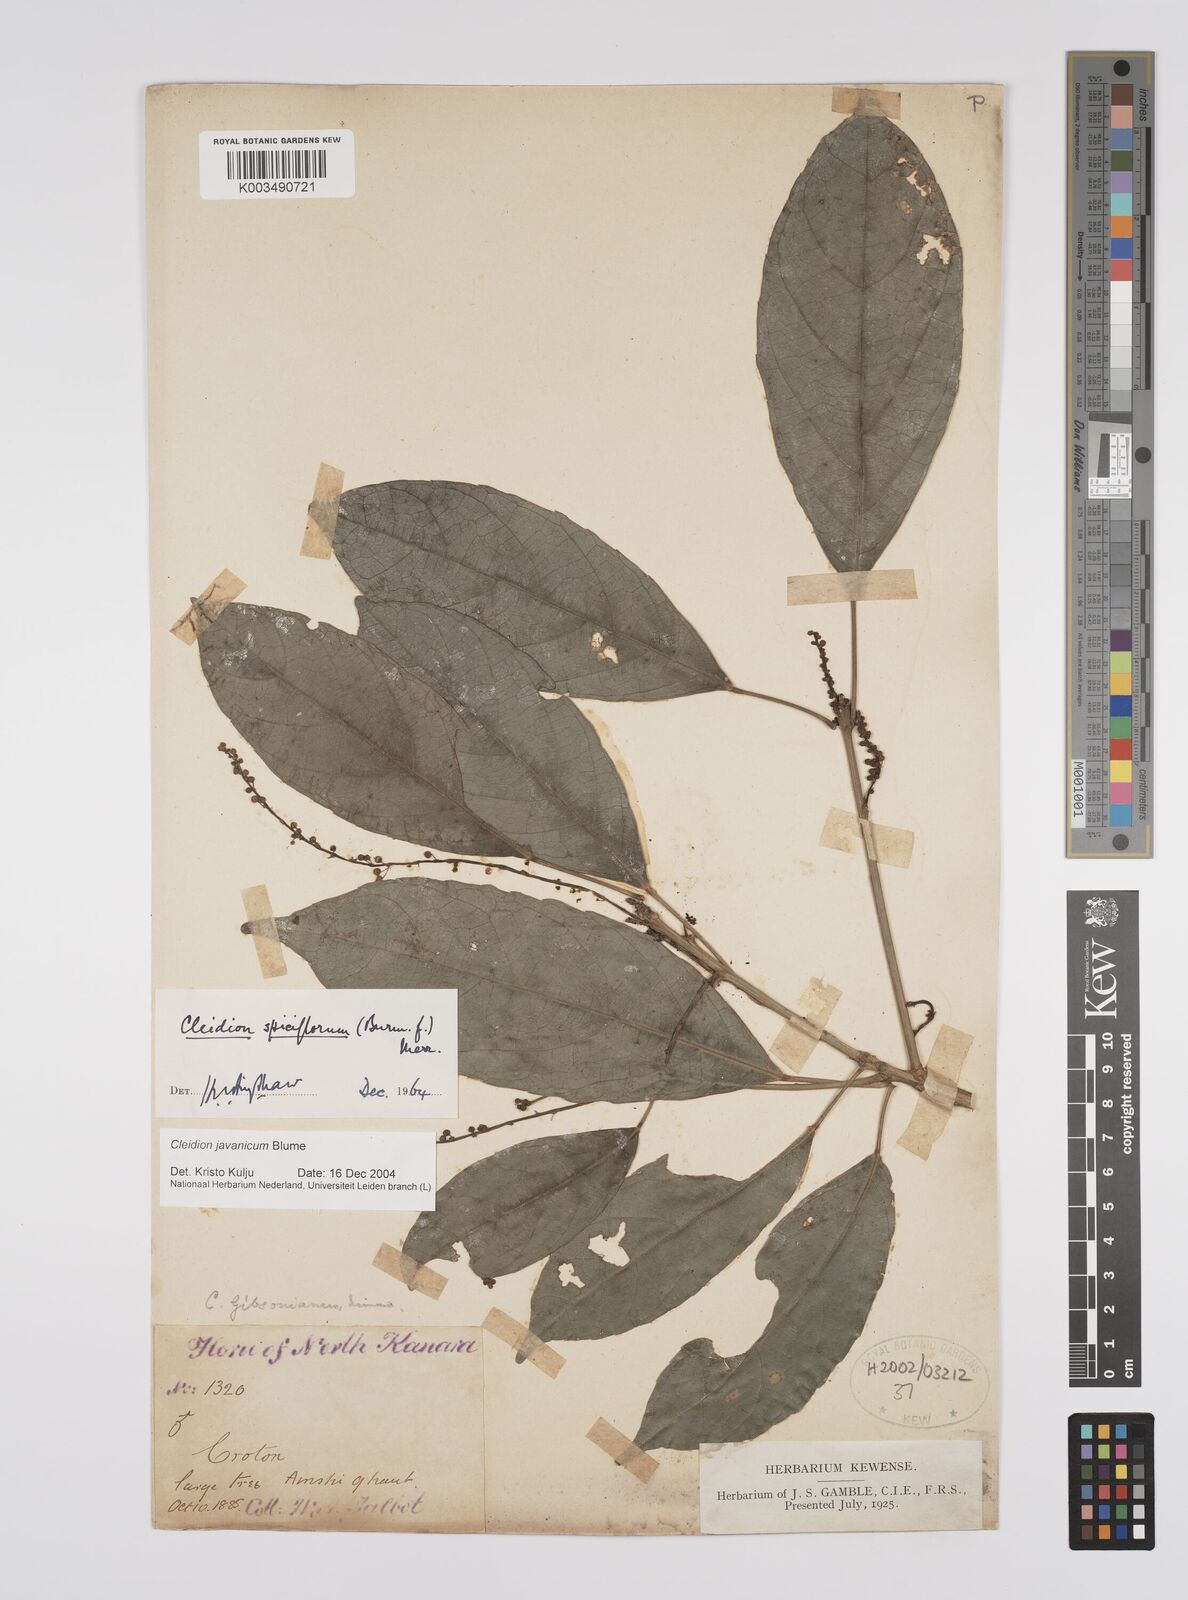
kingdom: Plantae
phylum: Tracheophyta
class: Magnoliopsida
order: Malpighiales
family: Euphorbiaceae
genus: Cleidion
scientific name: Cleidion javanicum
